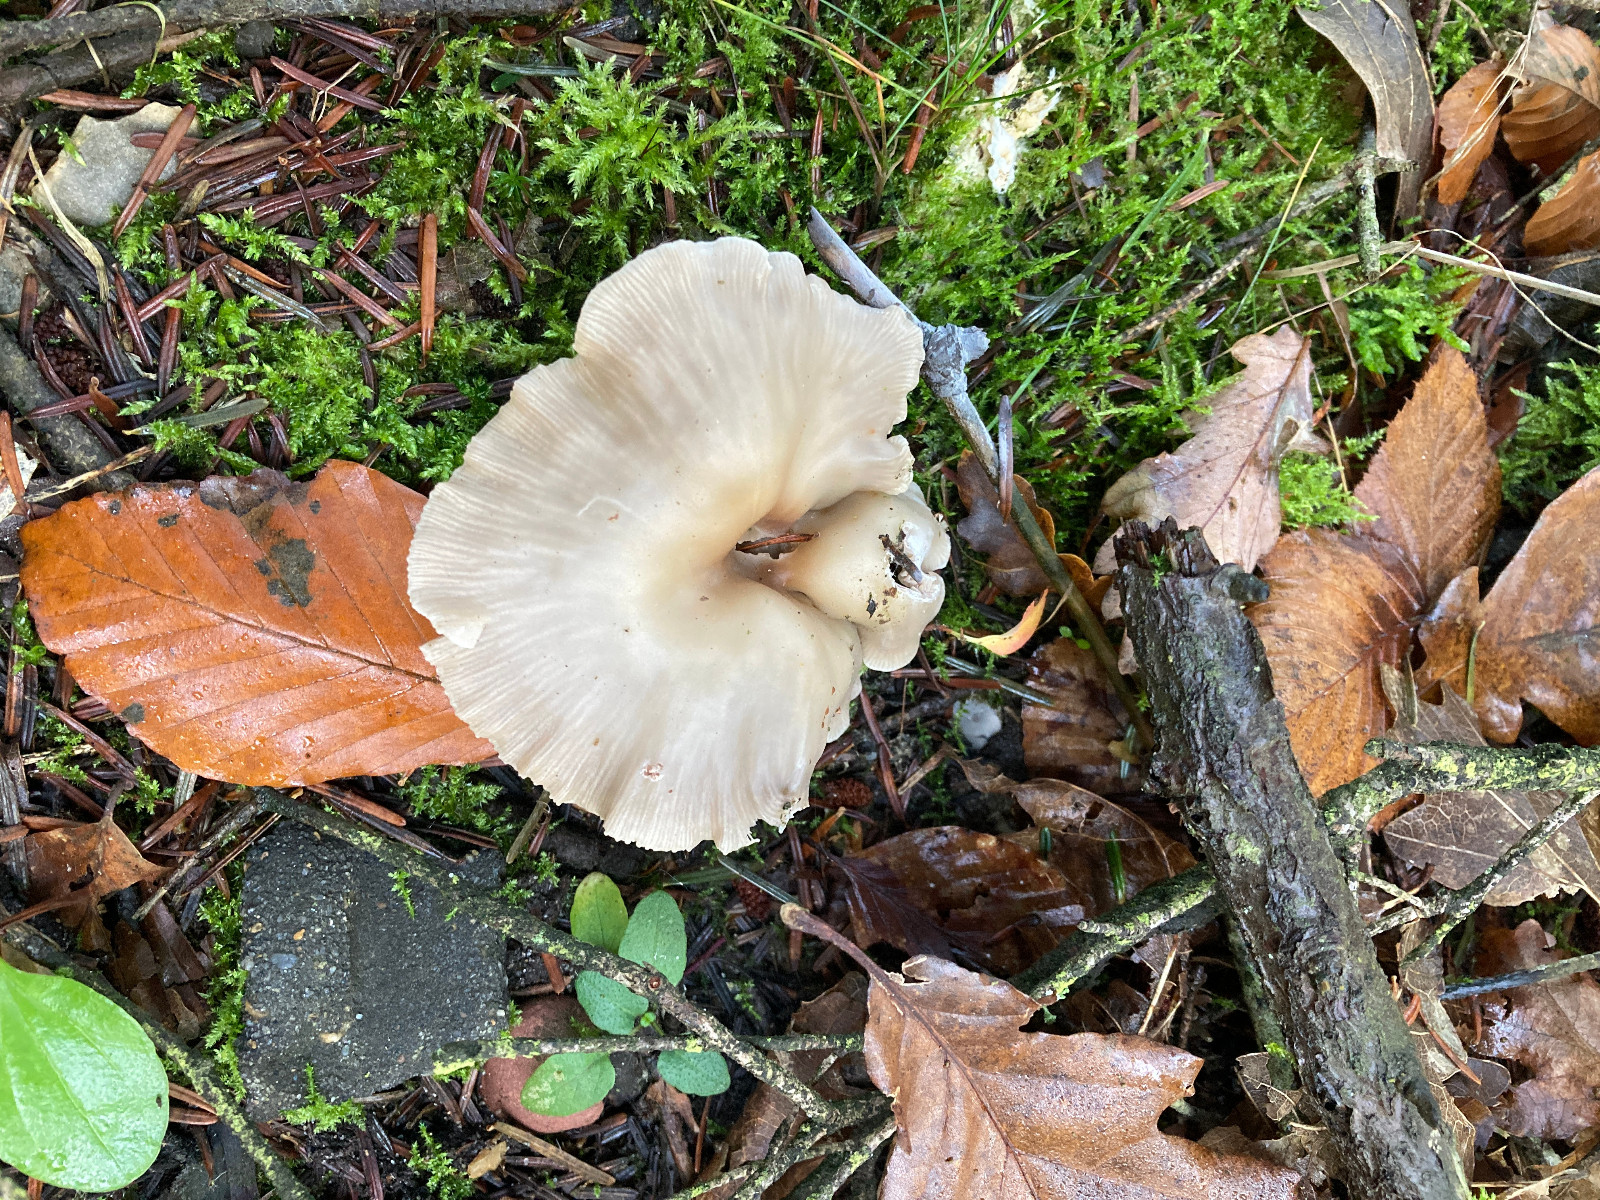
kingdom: Fungi
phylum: Basidiomycota
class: Agaricomycetes
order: Agaricales
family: Tricholomataceae
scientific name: Tricholomataceae
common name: ridderhatfamilien
